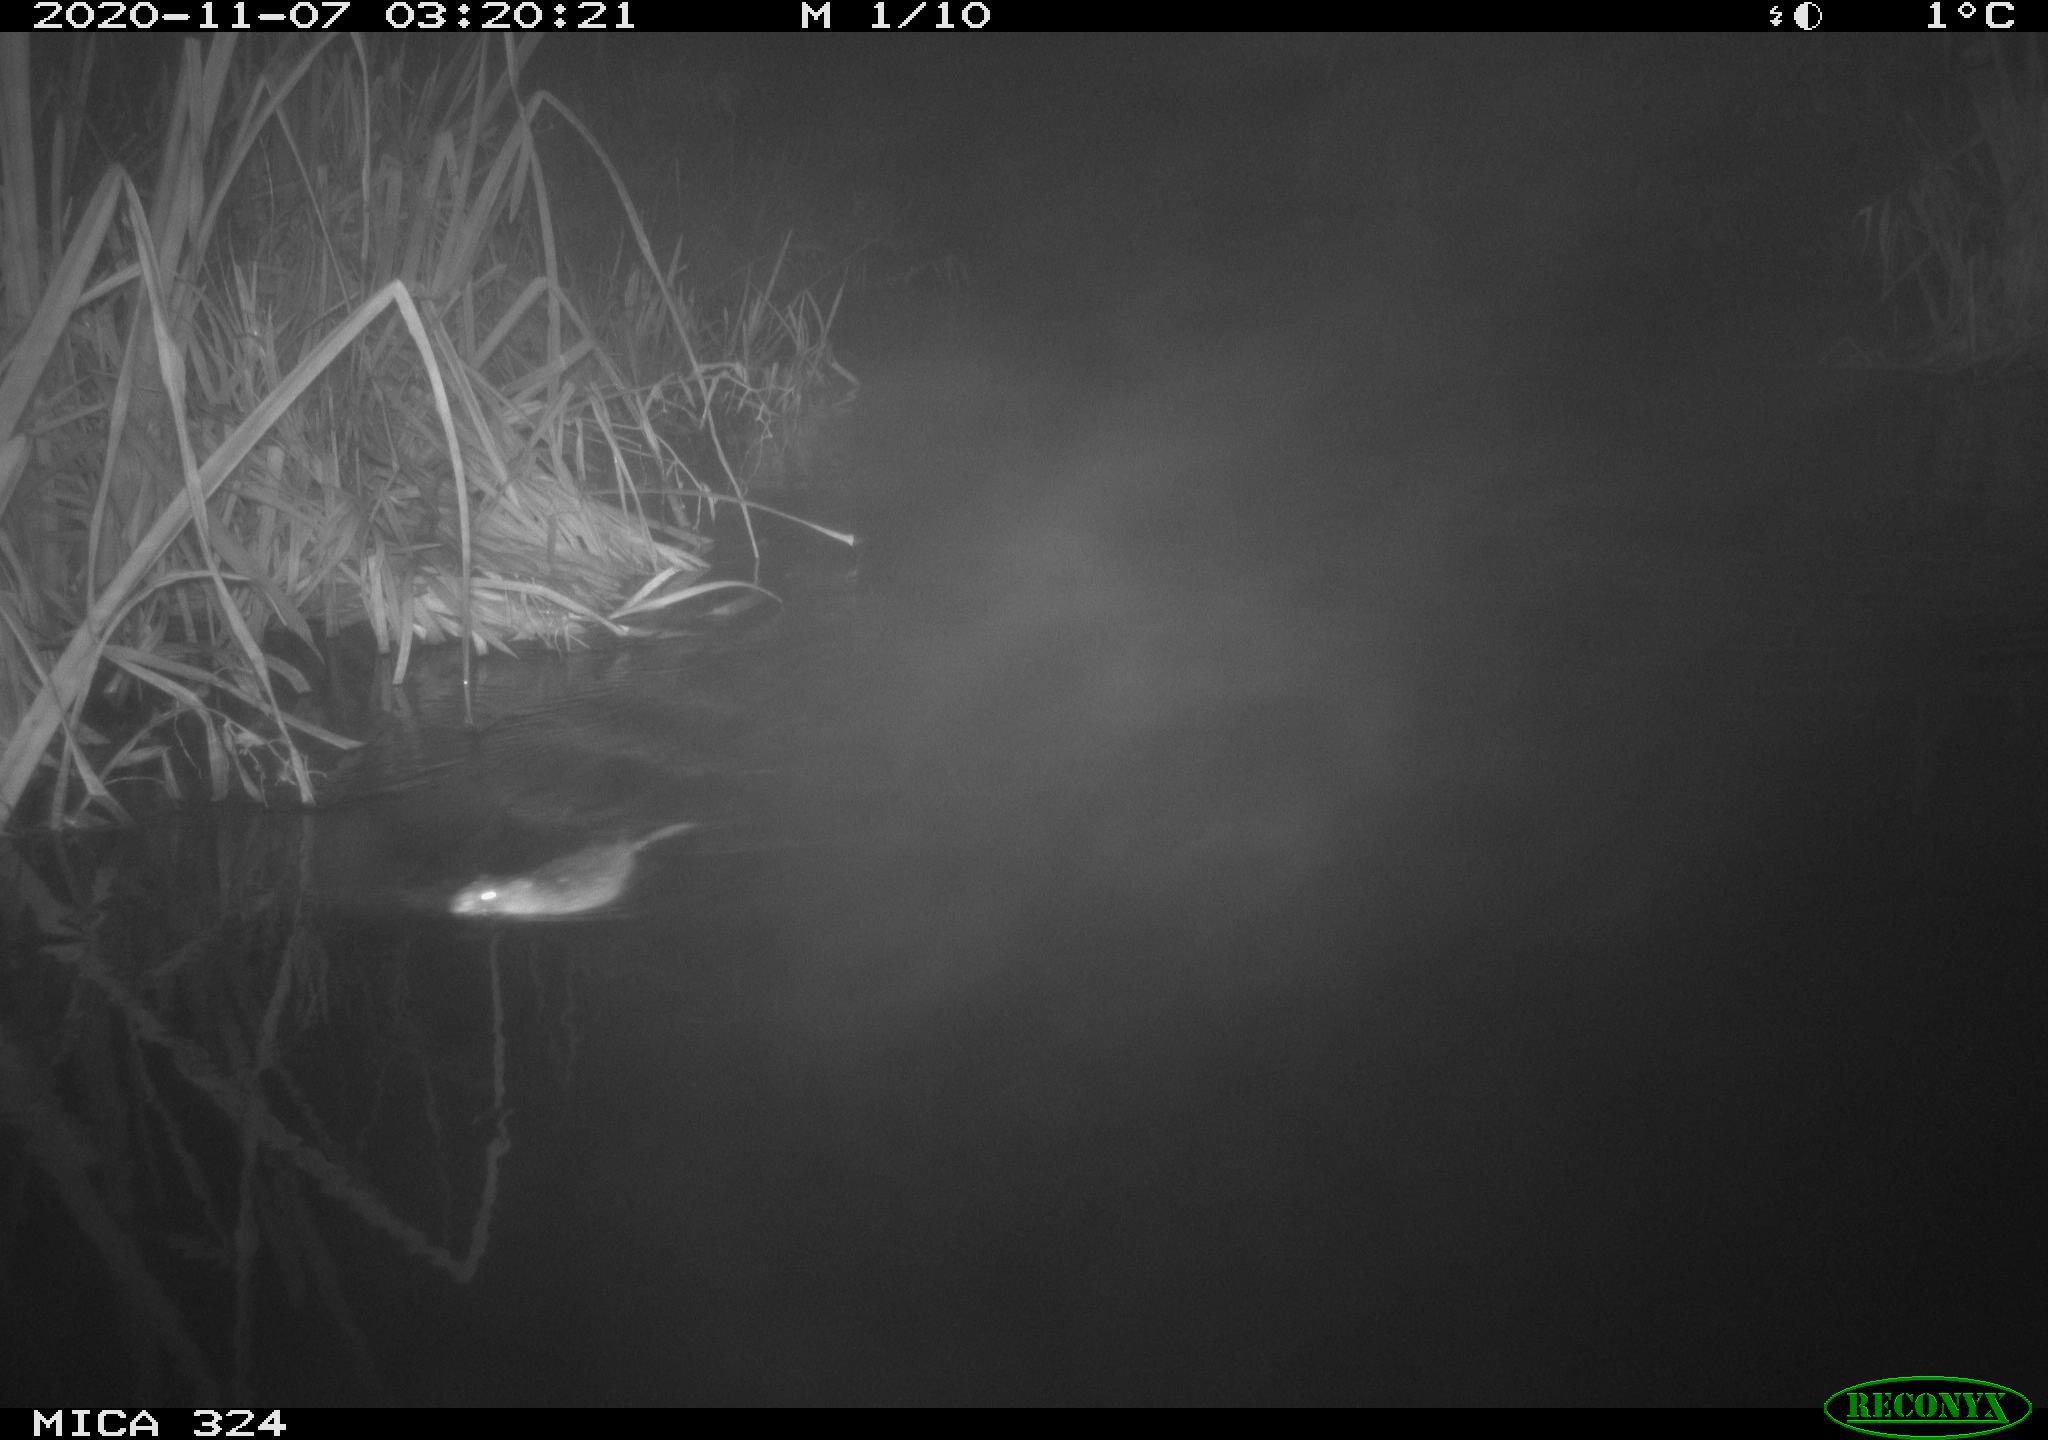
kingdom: Animalia
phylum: Chordata
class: Mammalia
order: Rodentia
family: Cricetidae
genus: Ondatra
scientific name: Ondatra zibethicus
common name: Muskrat
